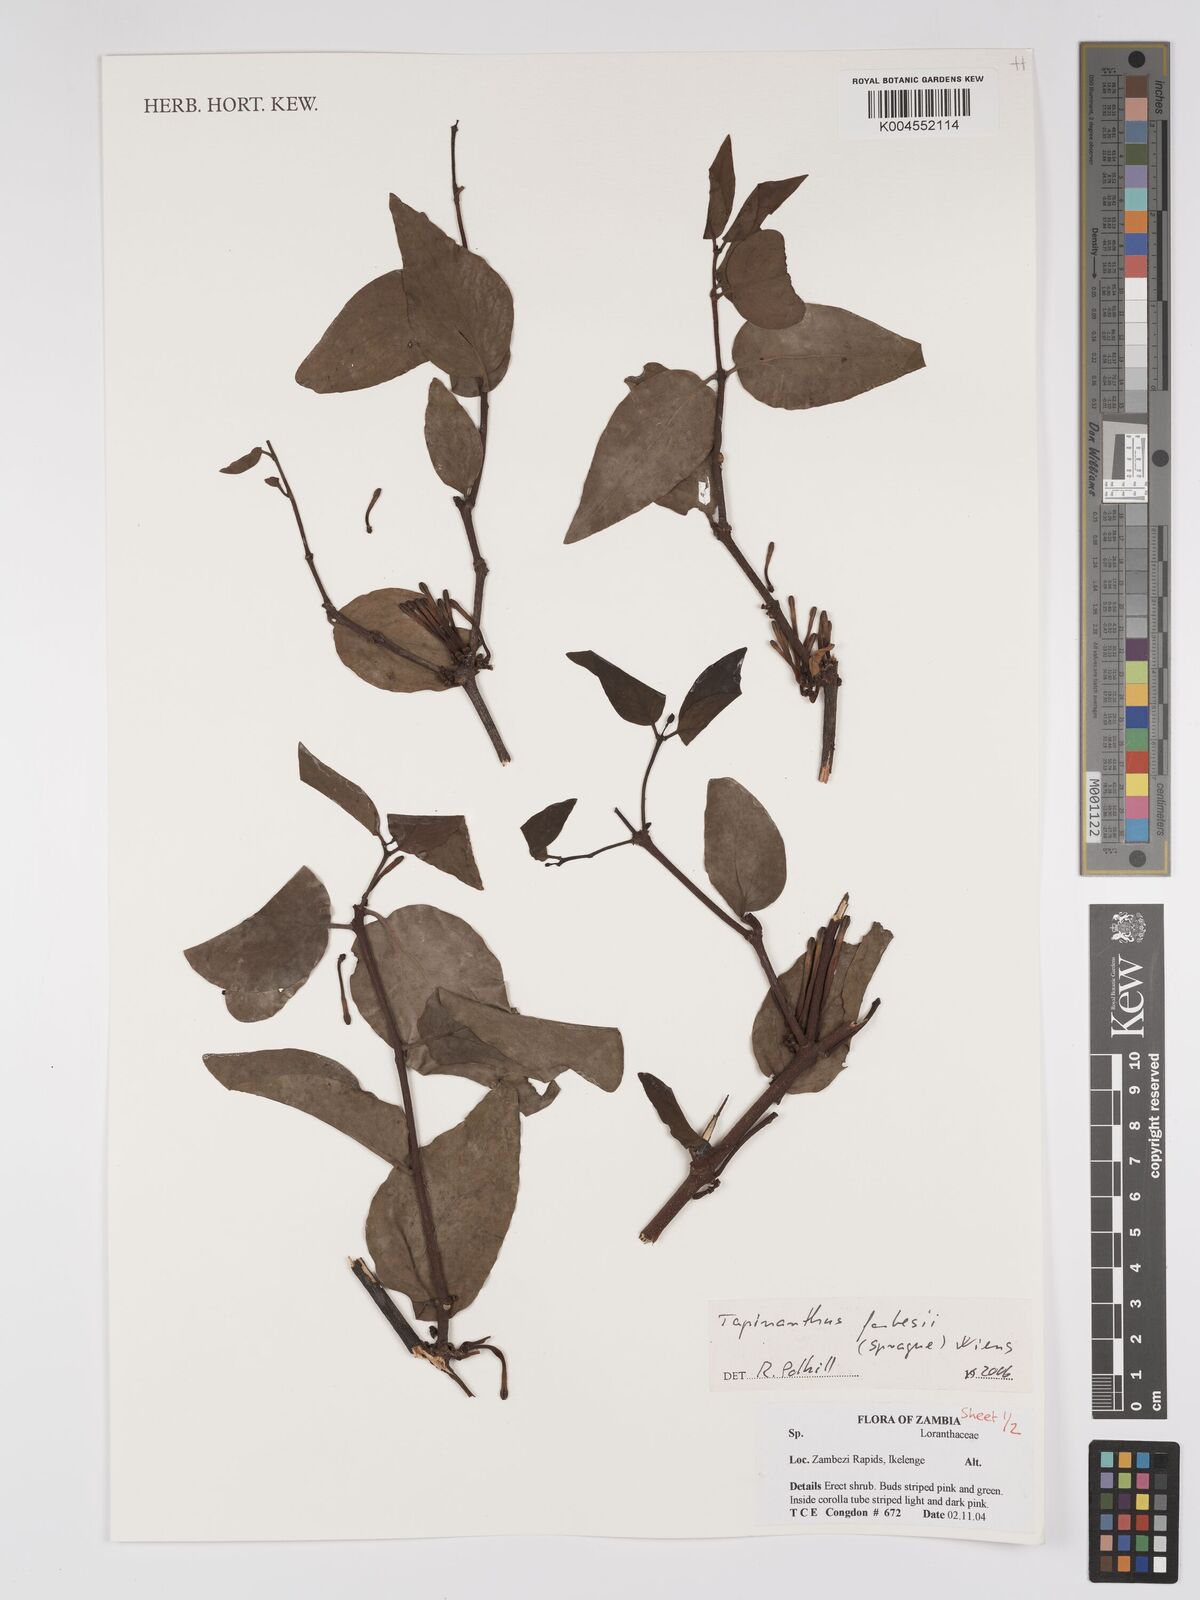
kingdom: Plantae
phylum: Tracheophyta
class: Magnoliopsida
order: Santalales
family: Loranthaceae
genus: Tapinanthus
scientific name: Tapinanthus forbesii
